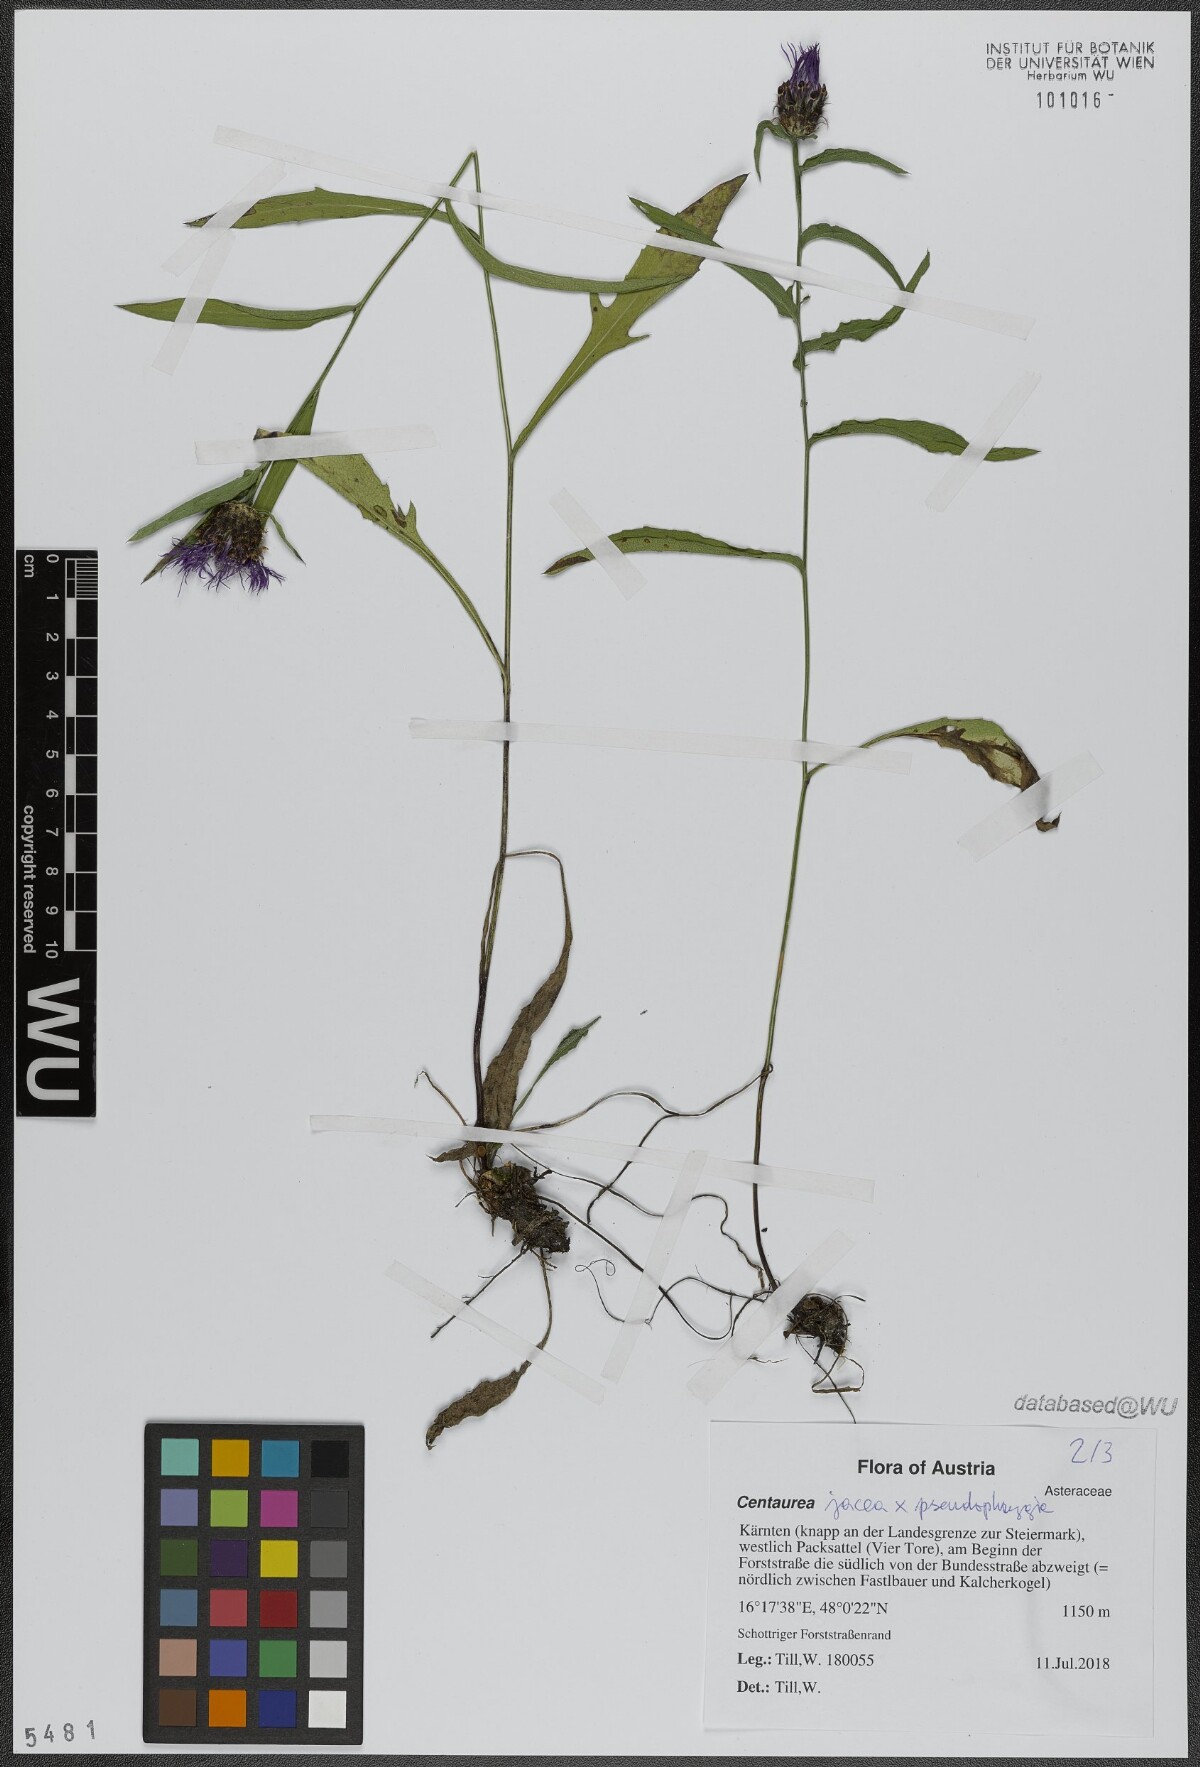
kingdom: Plantae
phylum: Tracheophyta
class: Magnoliopsida
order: Asterales
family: Asteraceae
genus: Centaurea
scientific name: Centaurea
